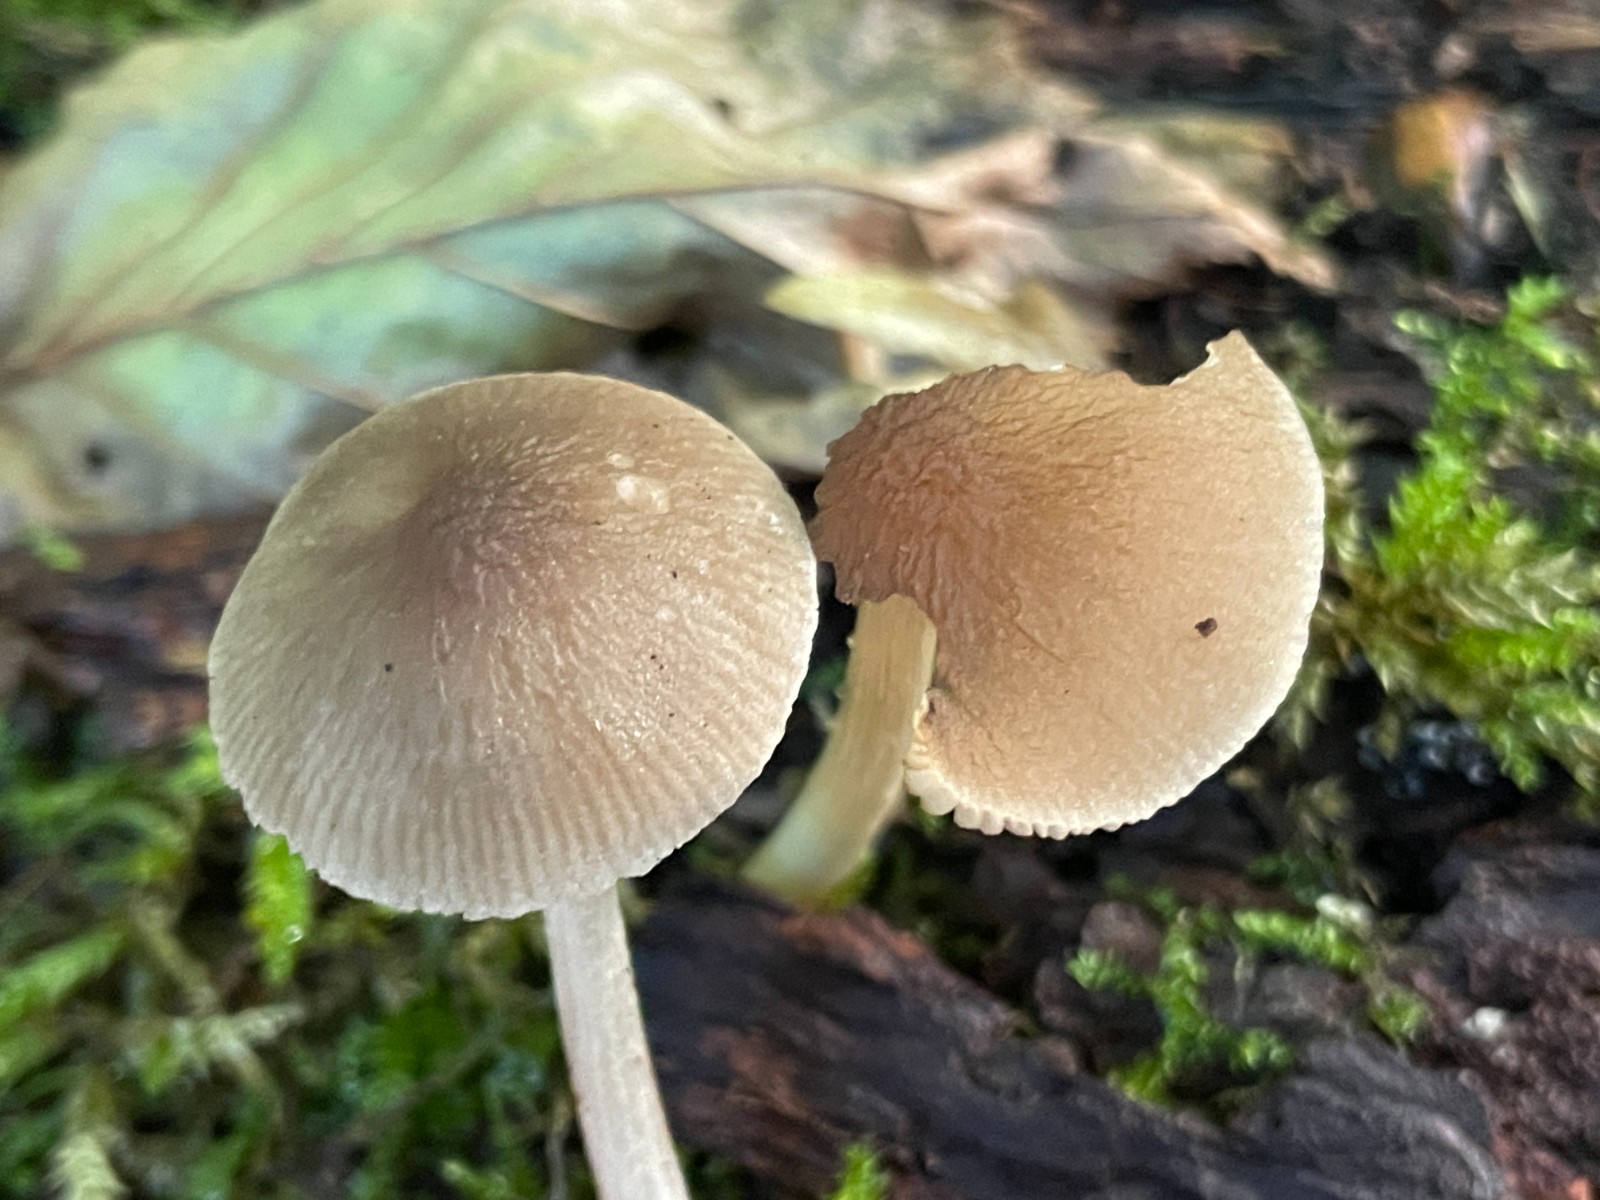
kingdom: Fungi
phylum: Basidiomycota
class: Agaricomycetes
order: Agaricales
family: Pluteaceae
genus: Pluteus
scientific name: Pluteus
